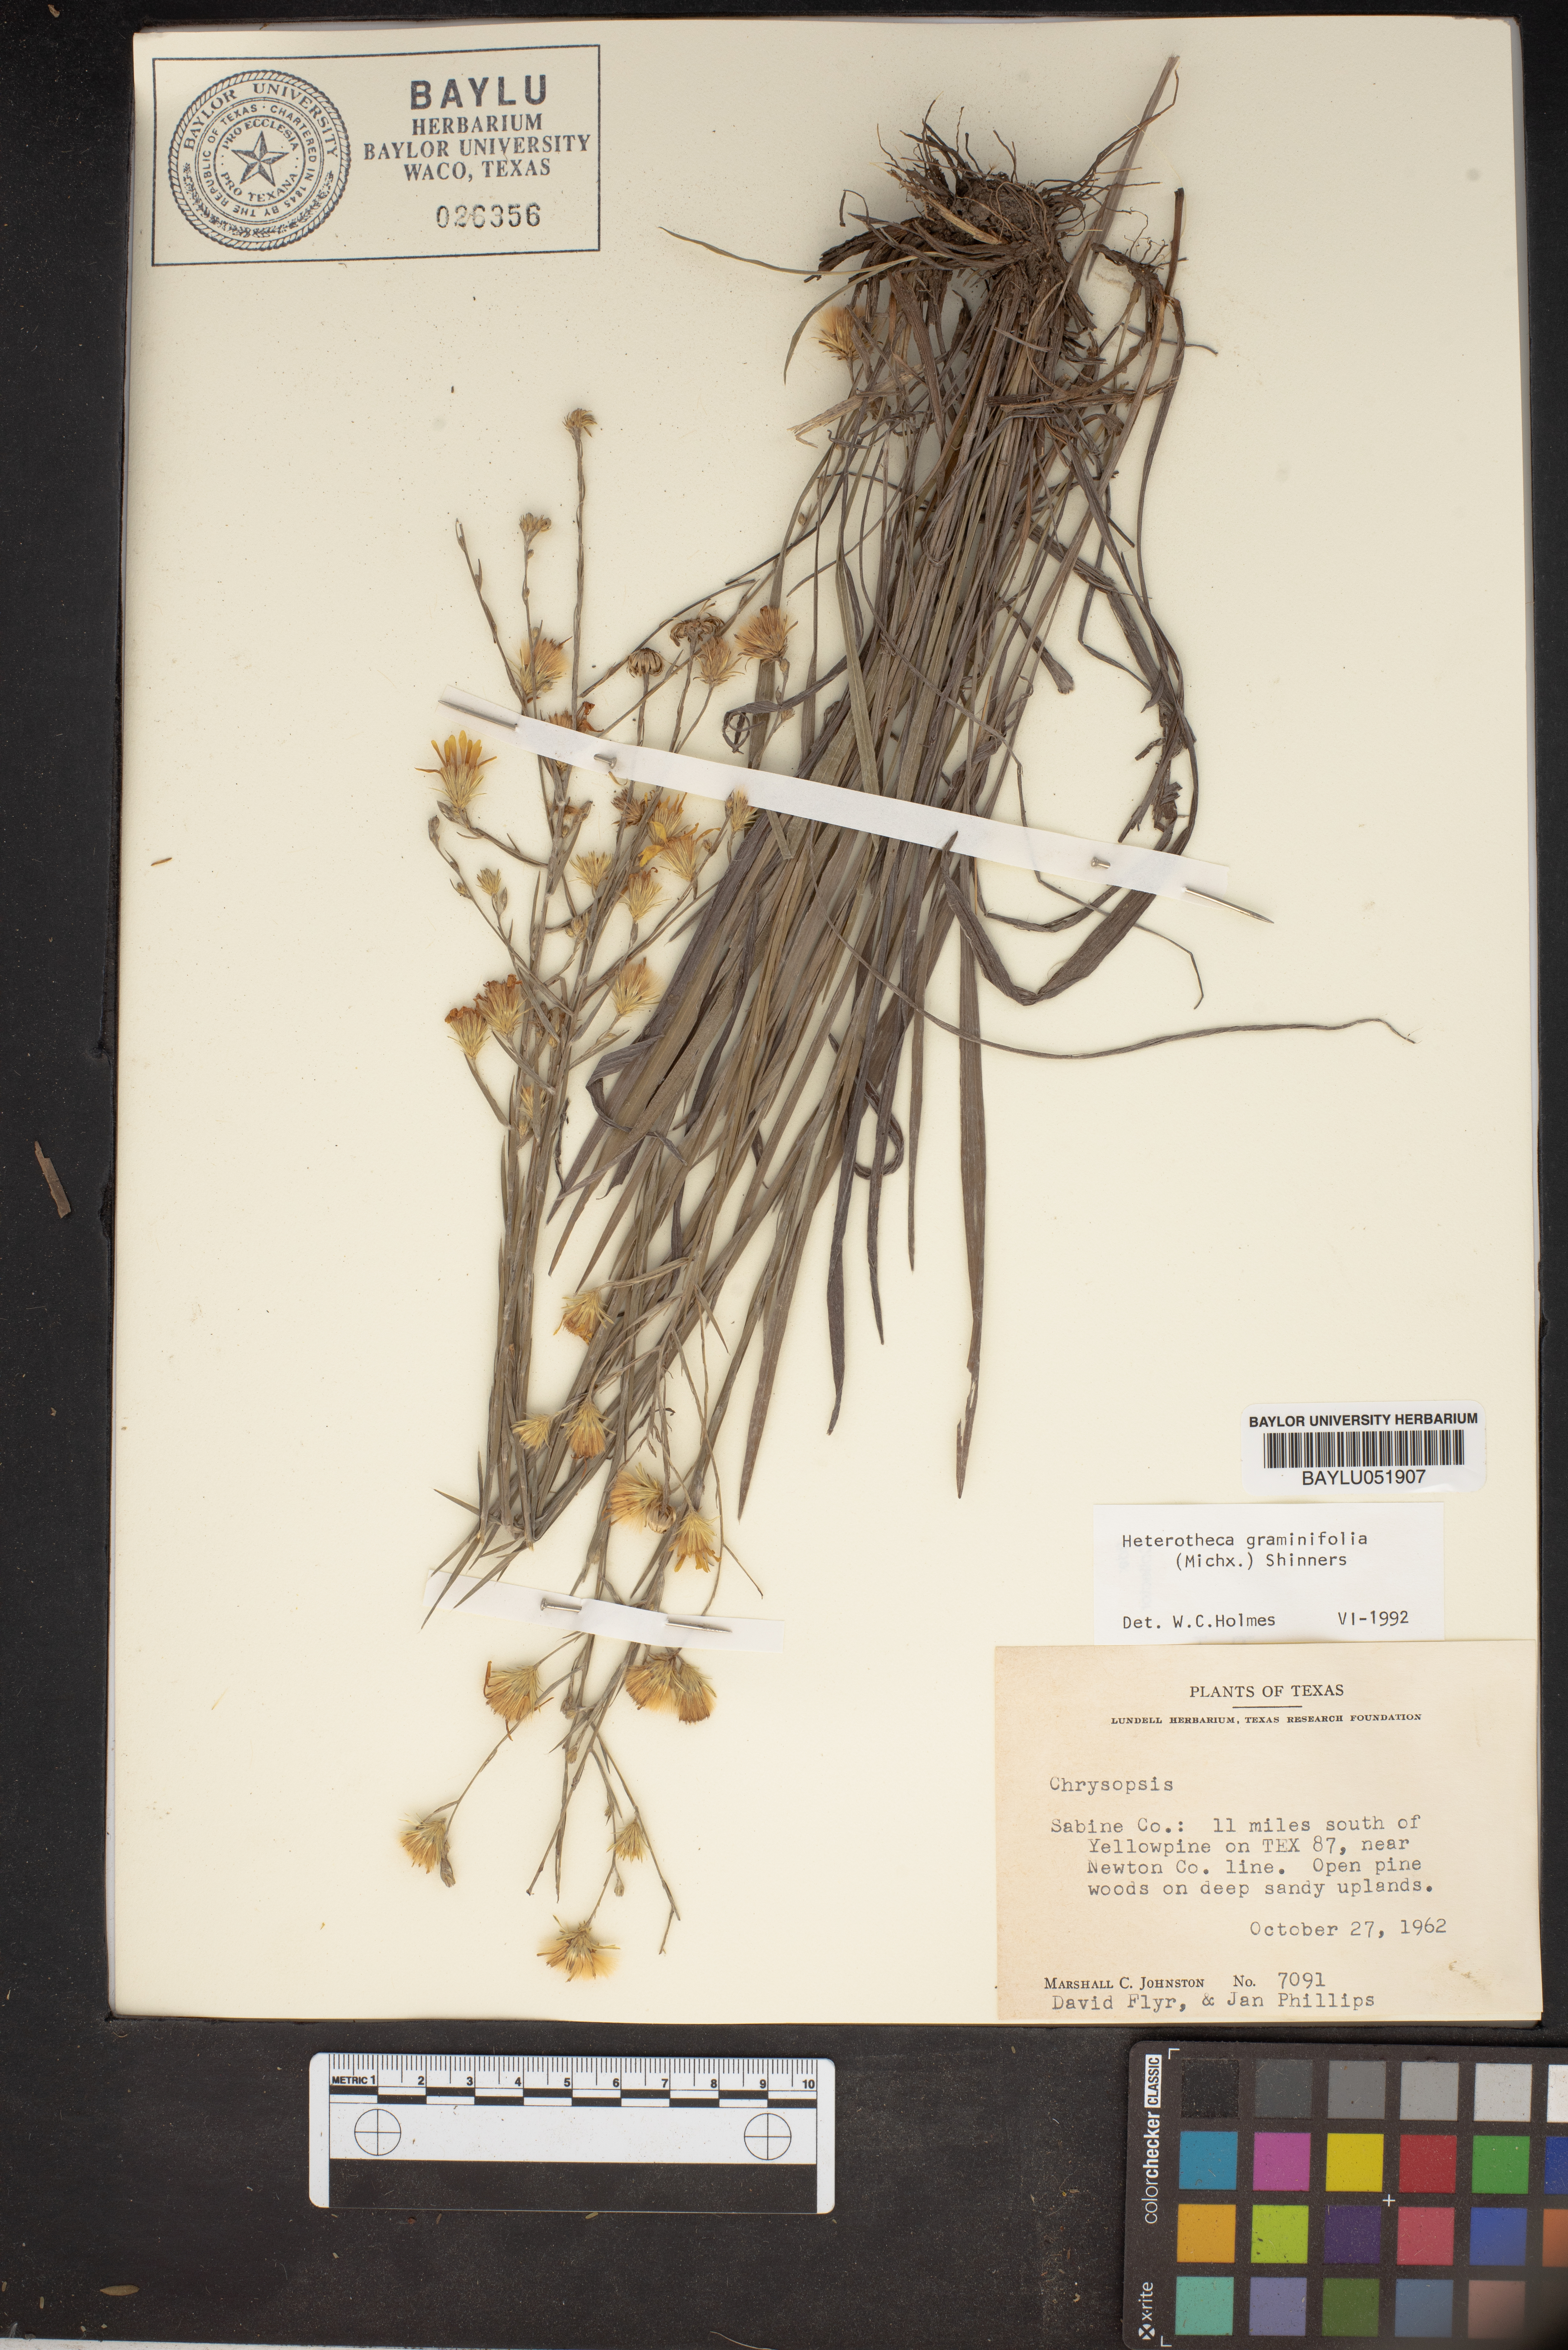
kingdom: Plantae
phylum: Tracheophyta
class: Magnoliopsida
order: Asterales
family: Asteraceae
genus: Pityopsis
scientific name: Pityopsis graminifolia
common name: Grass-leaf golden-aster
